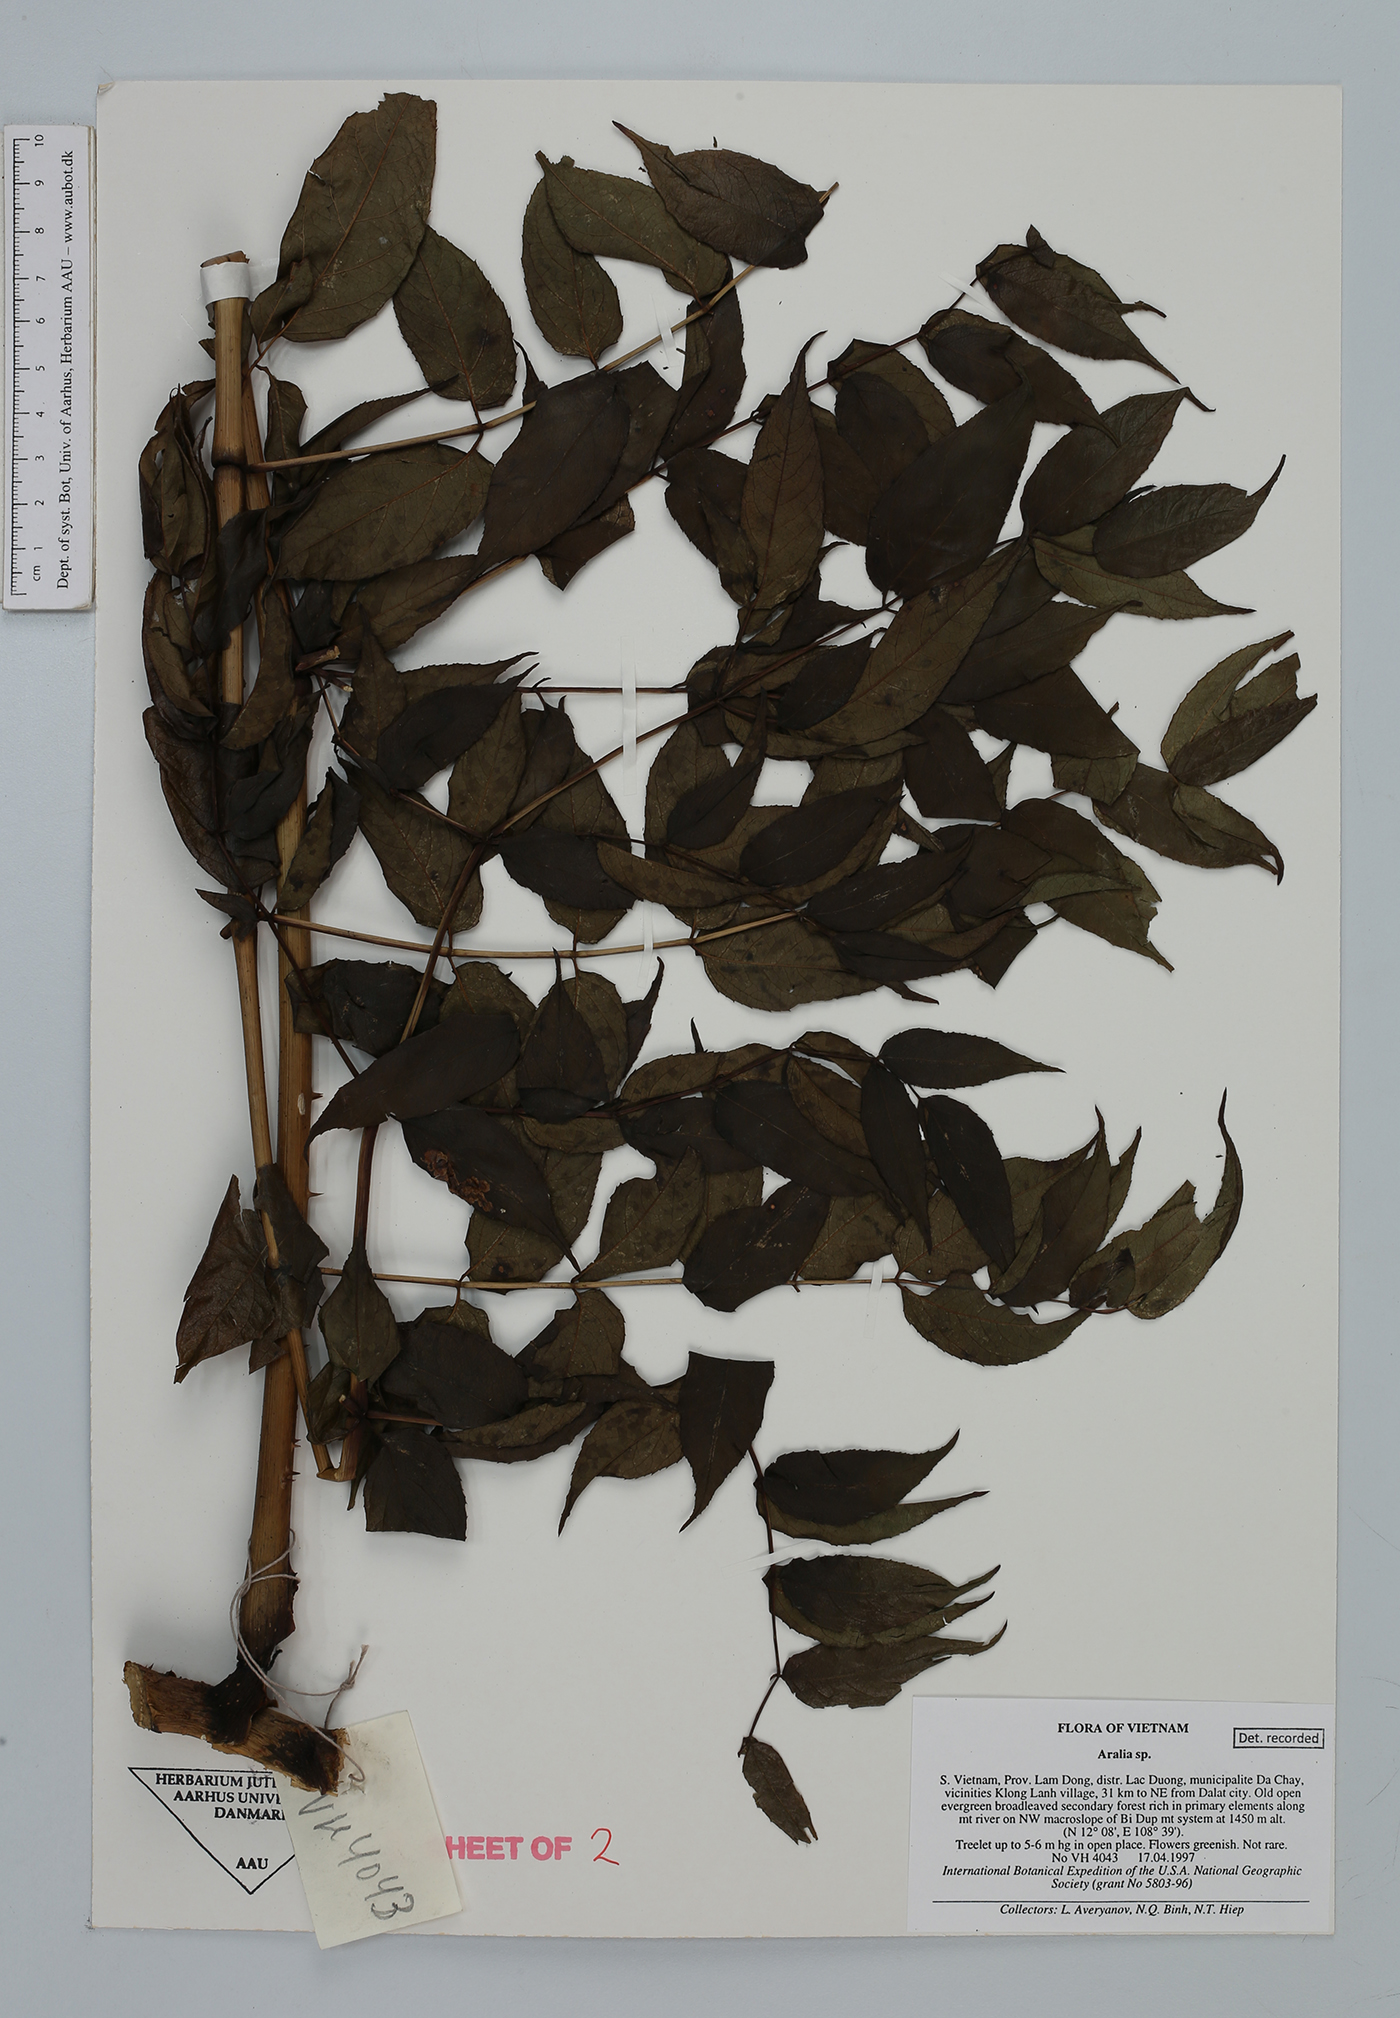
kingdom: Plantae
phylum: Tracheophyta
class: Magnoliopsida
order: Apiales
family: Araliaceae
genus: Aralia
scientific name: Aralia
